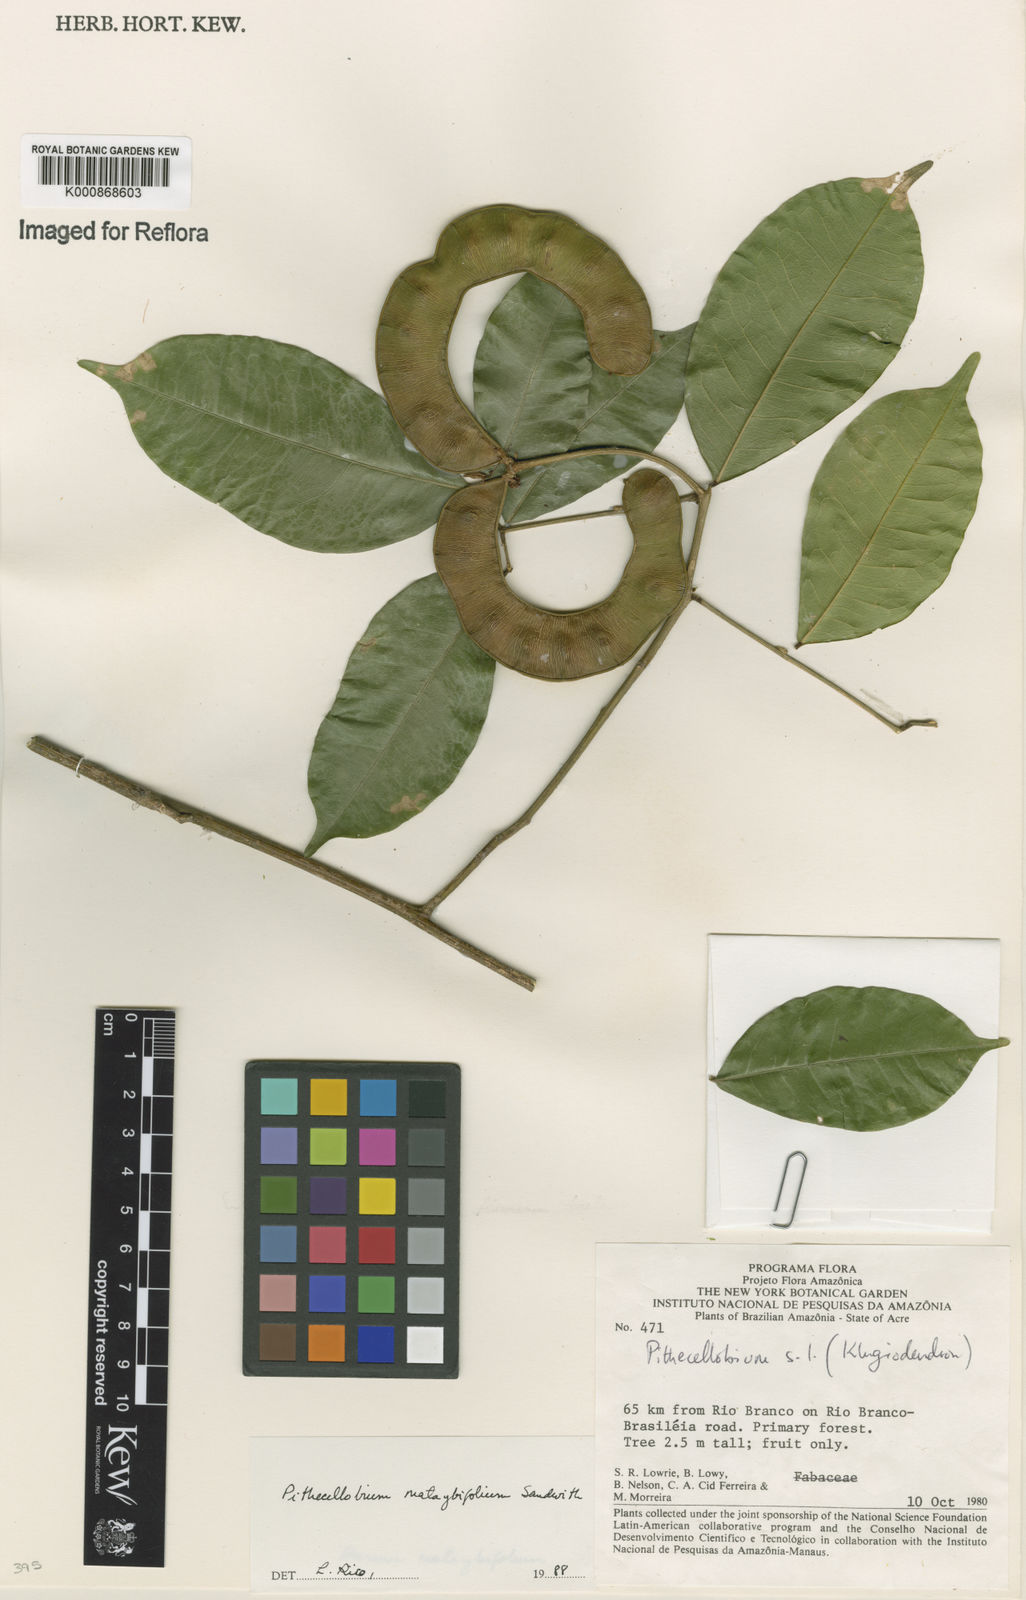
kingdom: Plantae
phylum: Tracheophyta
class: Magnoliopsida
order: Fabales
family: Fabaceae
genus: Jupunba
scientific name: Jupunba mataybifolia
